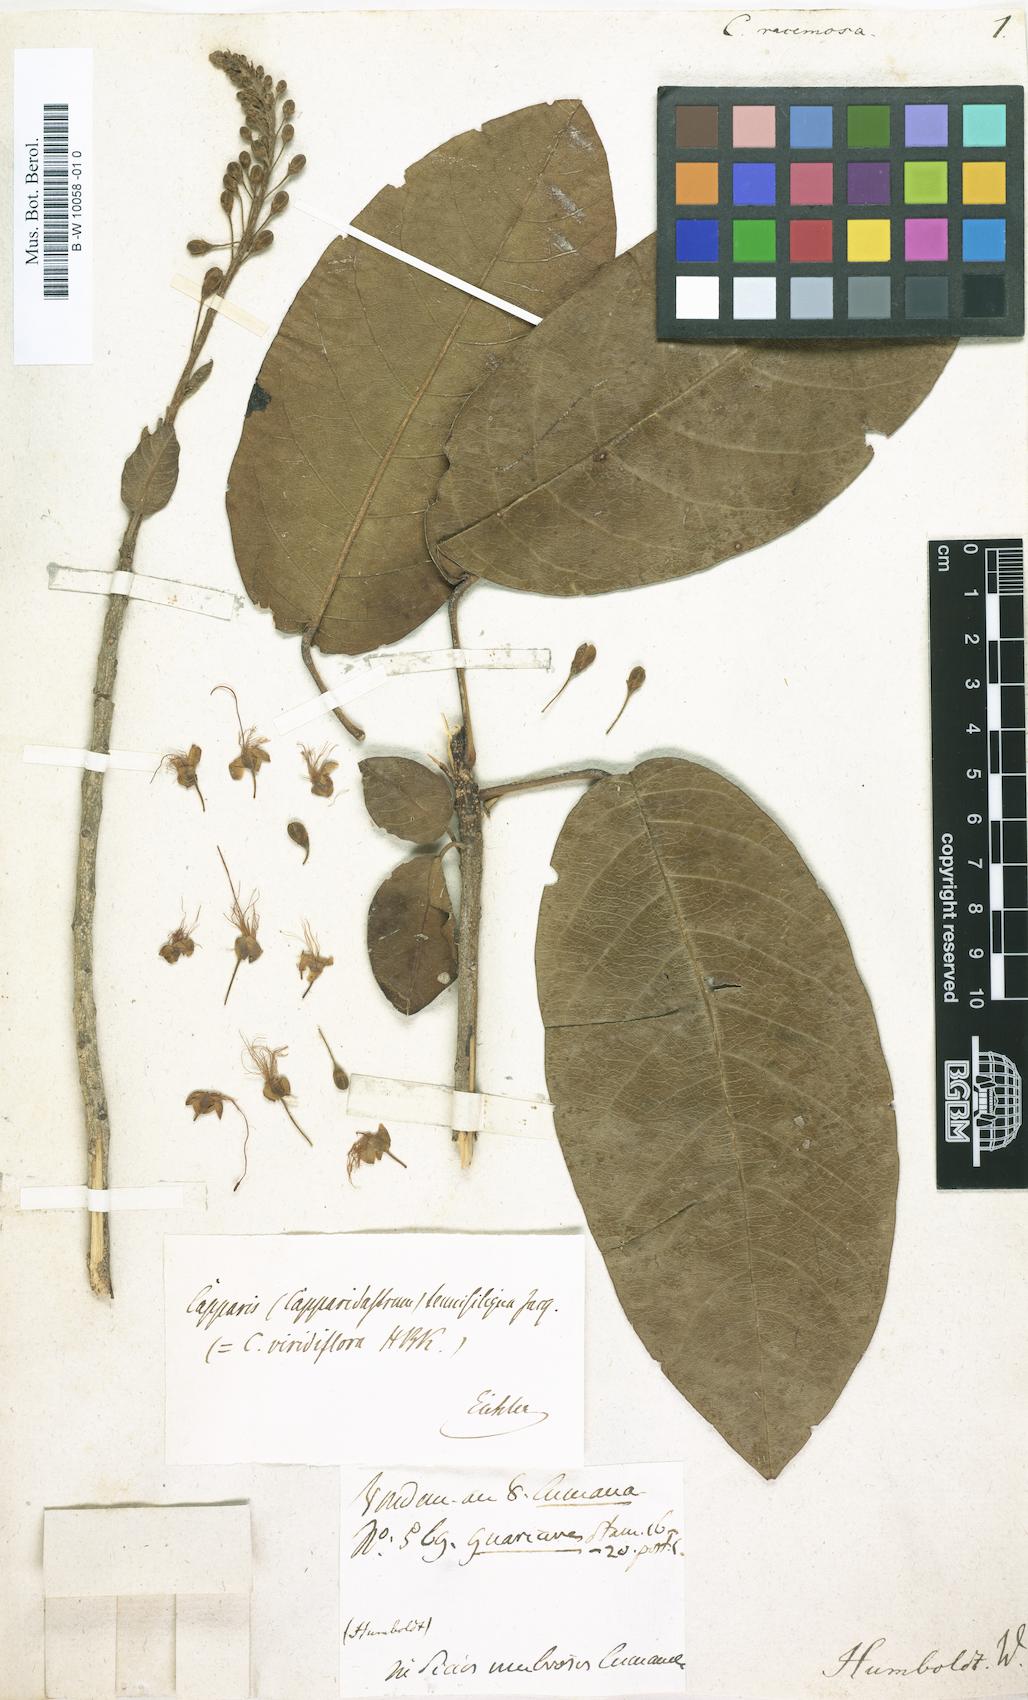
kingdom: Plantae
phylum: Tracheophyta
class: Magnoliopsida
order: Brassicales
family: Capparaceae
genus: Morisonia
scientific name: Morisonia americana
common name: Wild mesple
